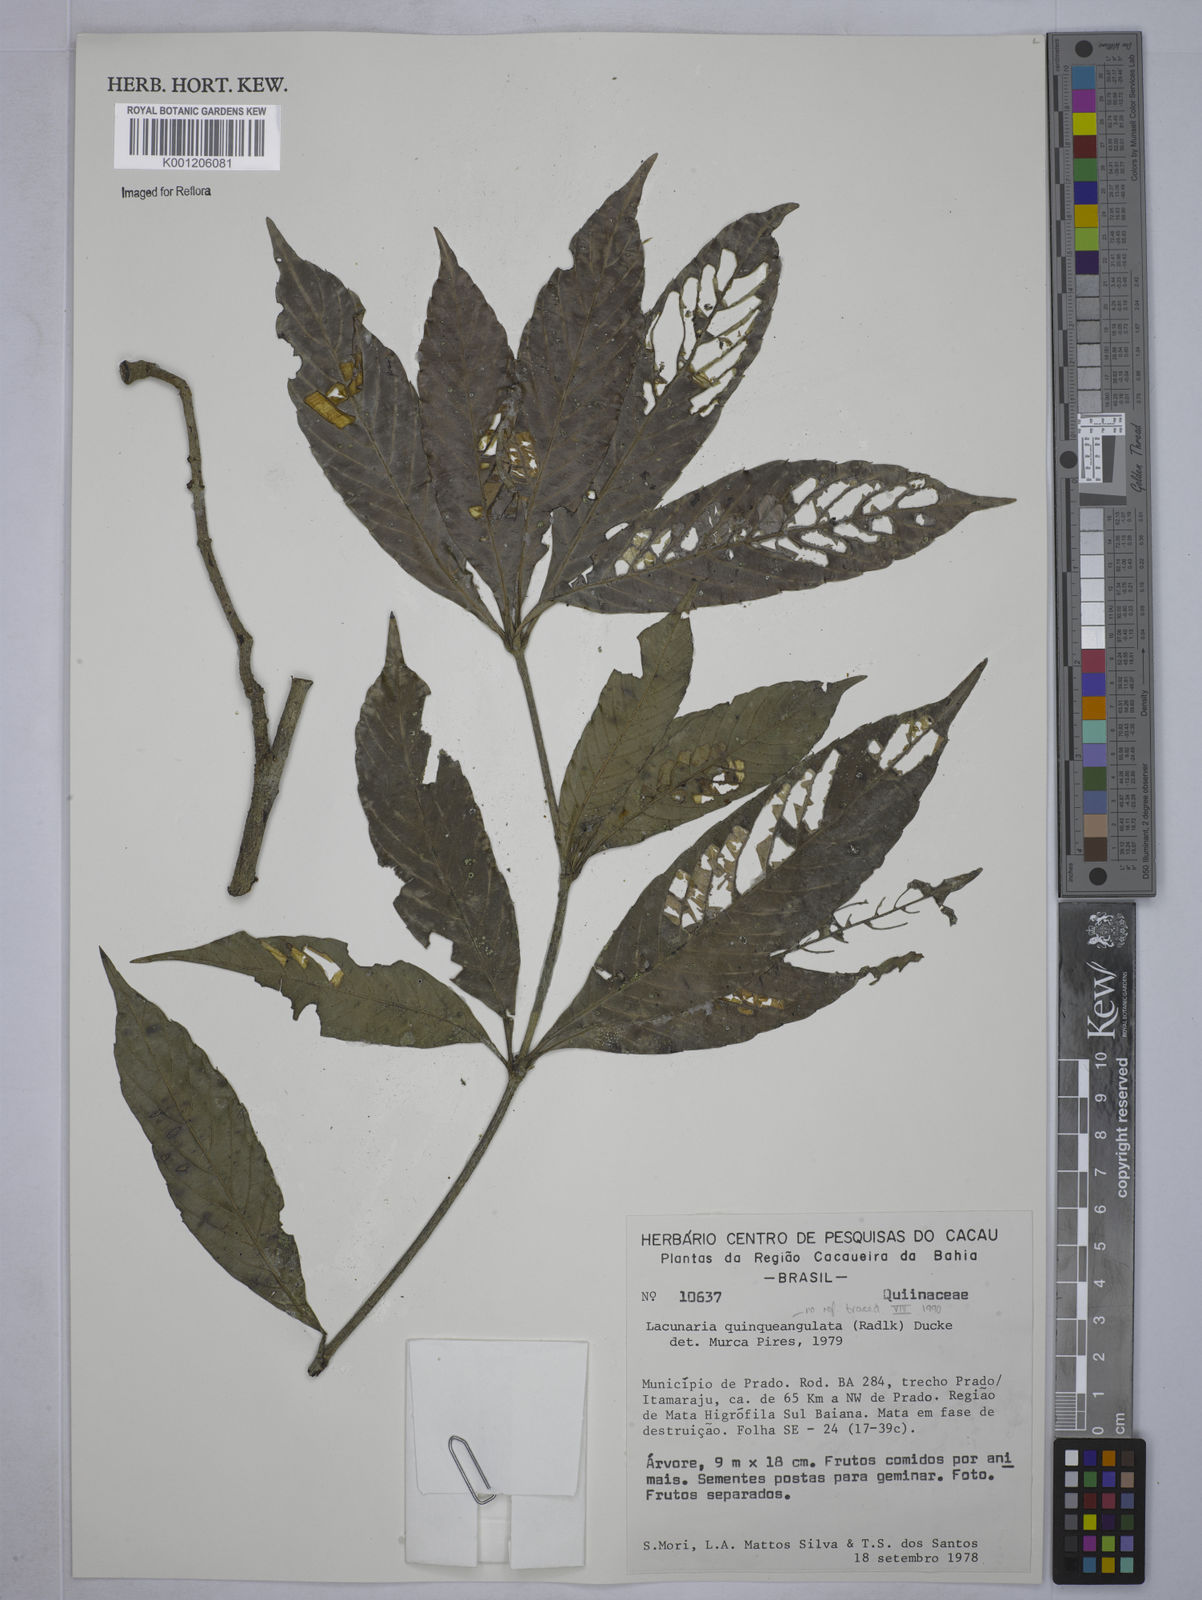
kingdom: Plantae
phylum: Tracheophyta
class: Magnoliopsida
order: Malpighiales
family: Quiinaceae
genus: Lacunaria
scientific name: Lacunaria
